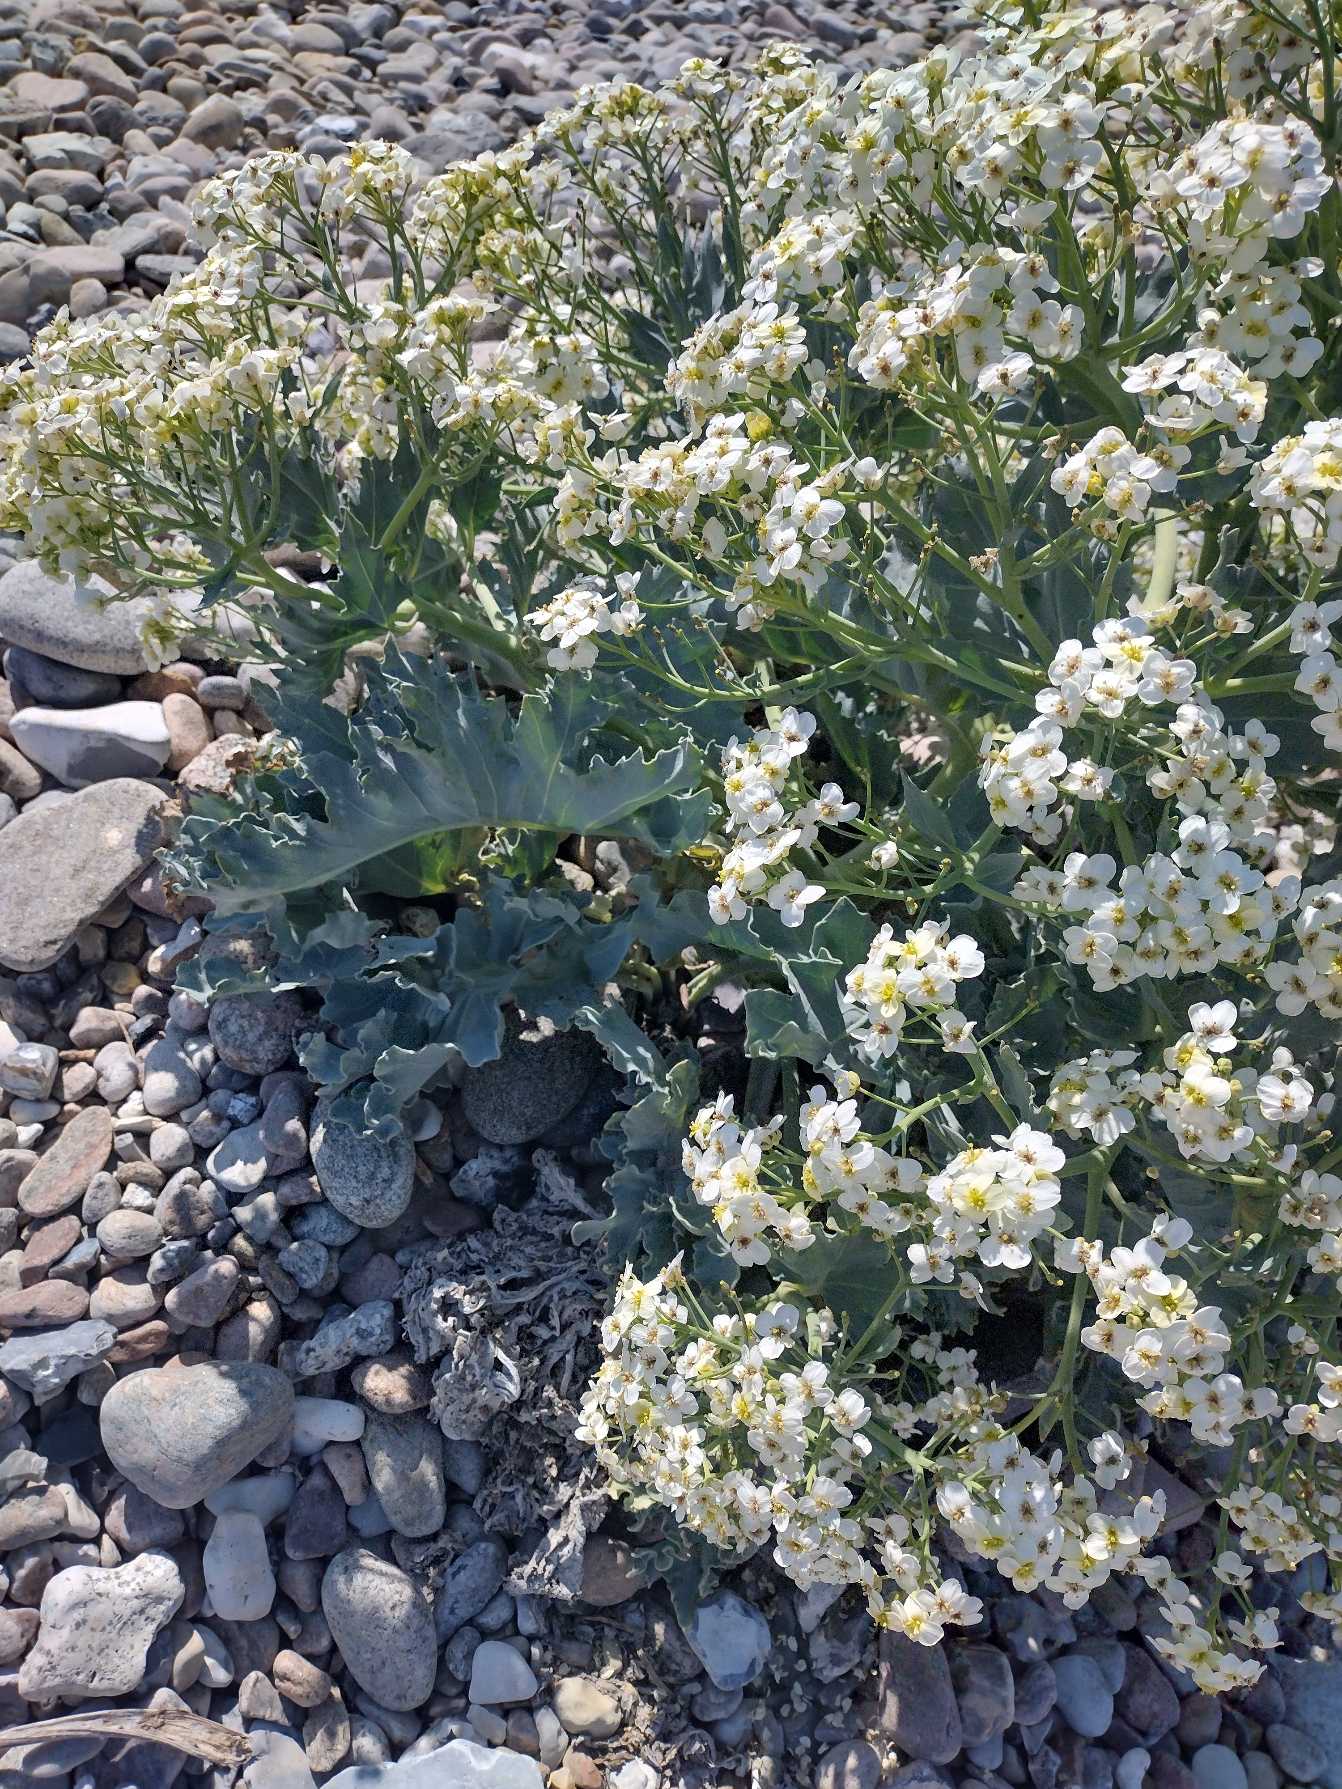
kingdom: Plantae
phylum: Tracheophyta
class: Magnoliopsida
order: Brassicales
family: Brassicaceae
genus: Crambe
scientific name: Crambe maritima
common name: Strandkål
